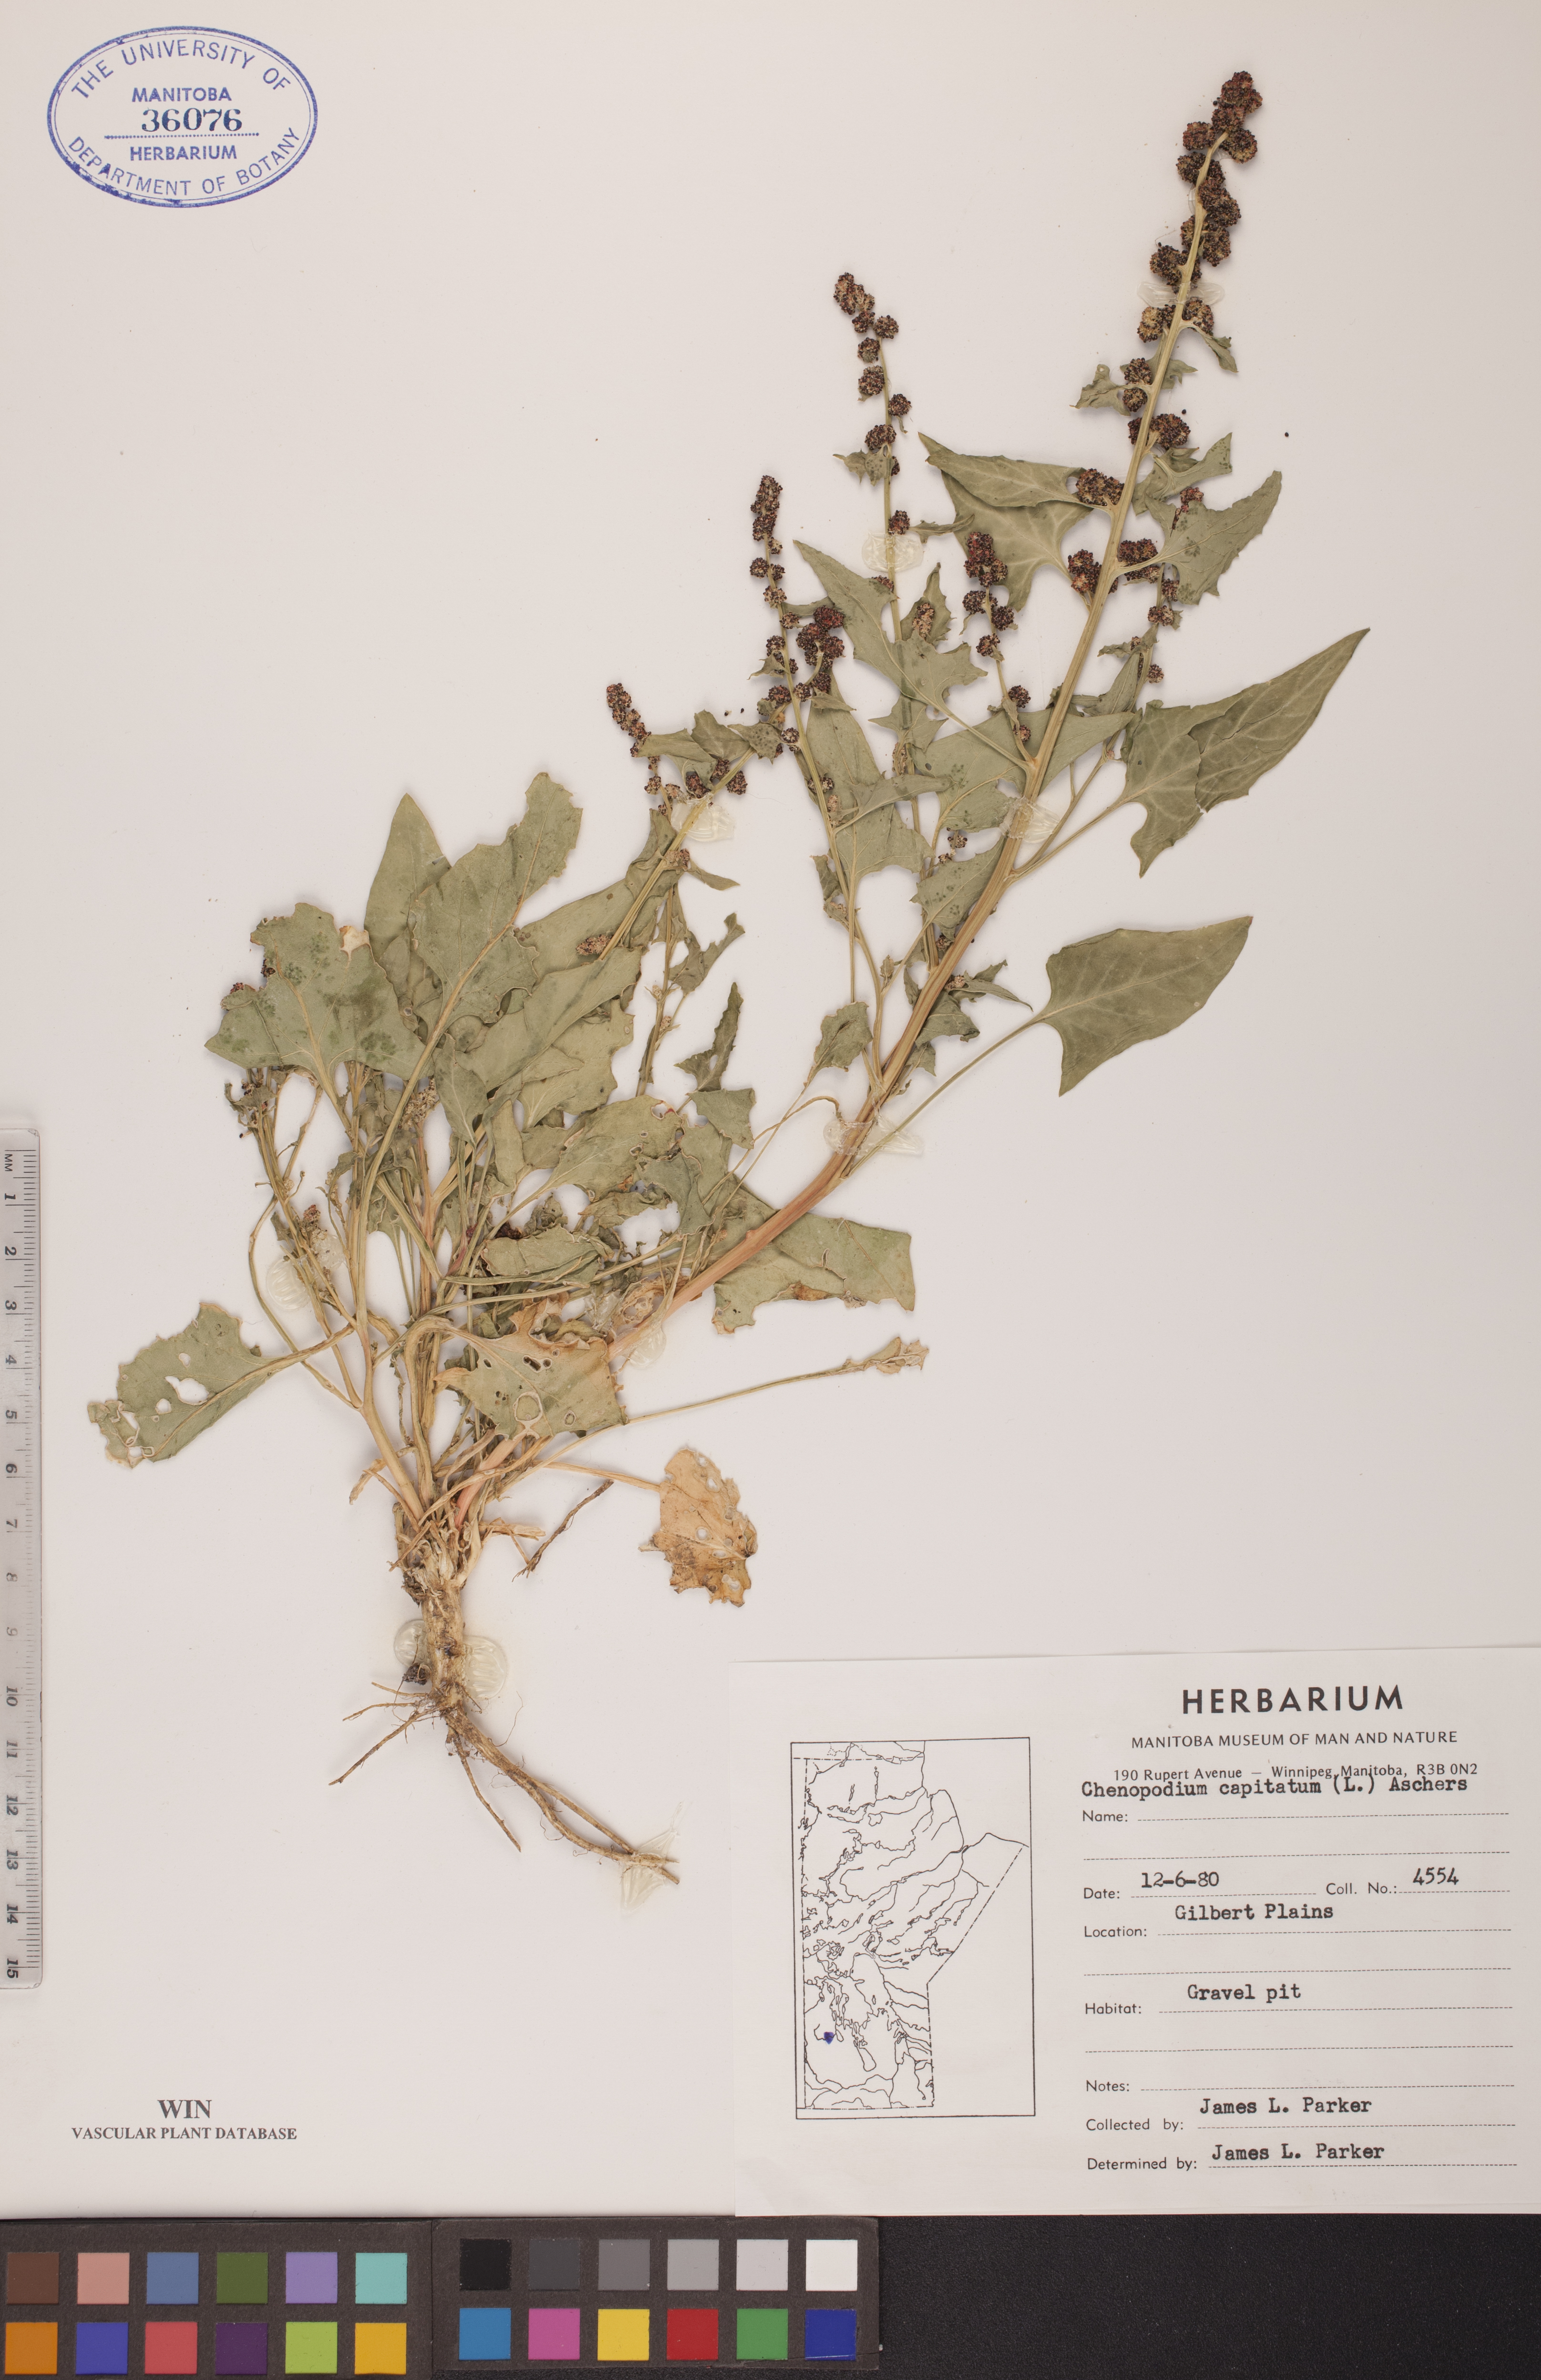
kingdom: Plantae
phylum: Tracheophyta
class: Magnoliopsida
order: Caryophyllales
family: Amaranthaceae
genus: Blitum
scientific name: Blitum capitatum
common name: Strawberry-blight
